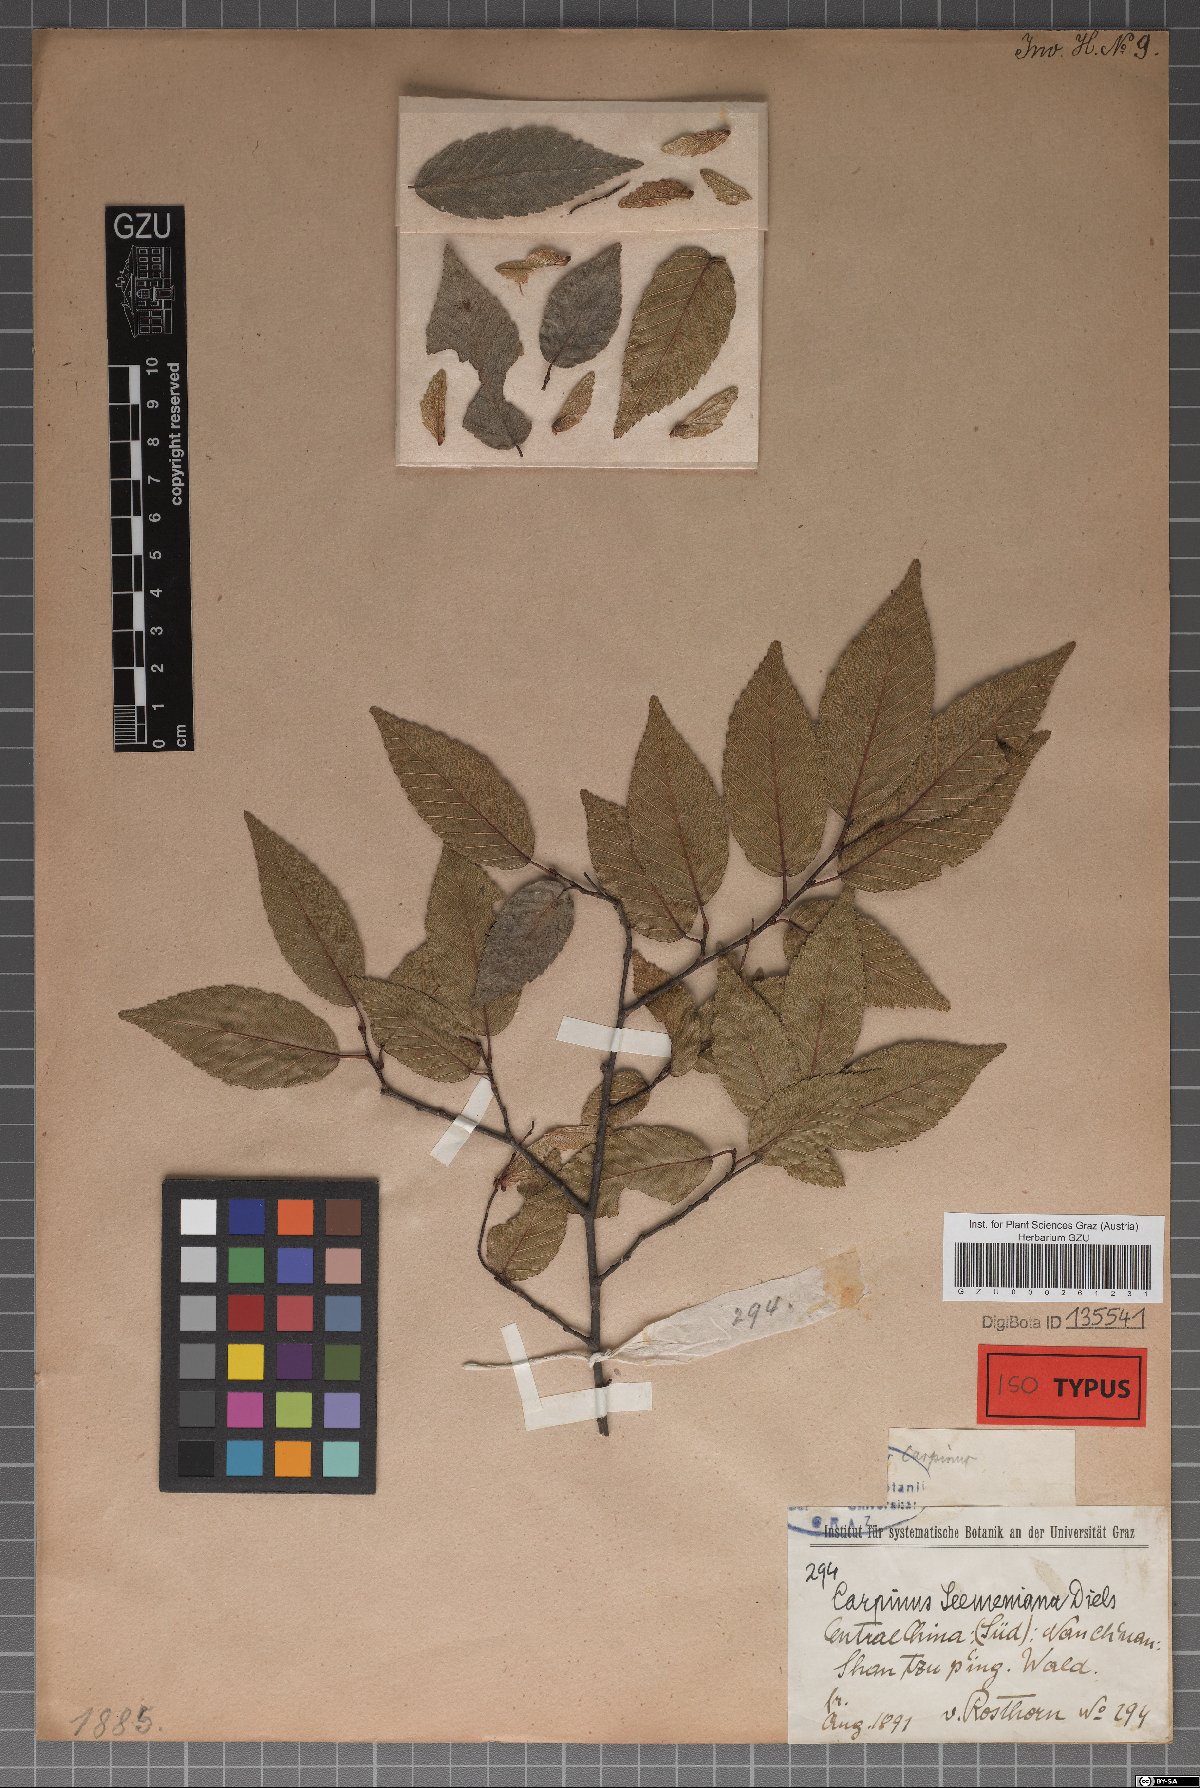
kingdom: Plantae
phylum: Tracheophyta
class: Magnoliopsida
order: Fagales
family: Betulaceae
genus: Carpinus
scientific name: Carpinus pubescens
